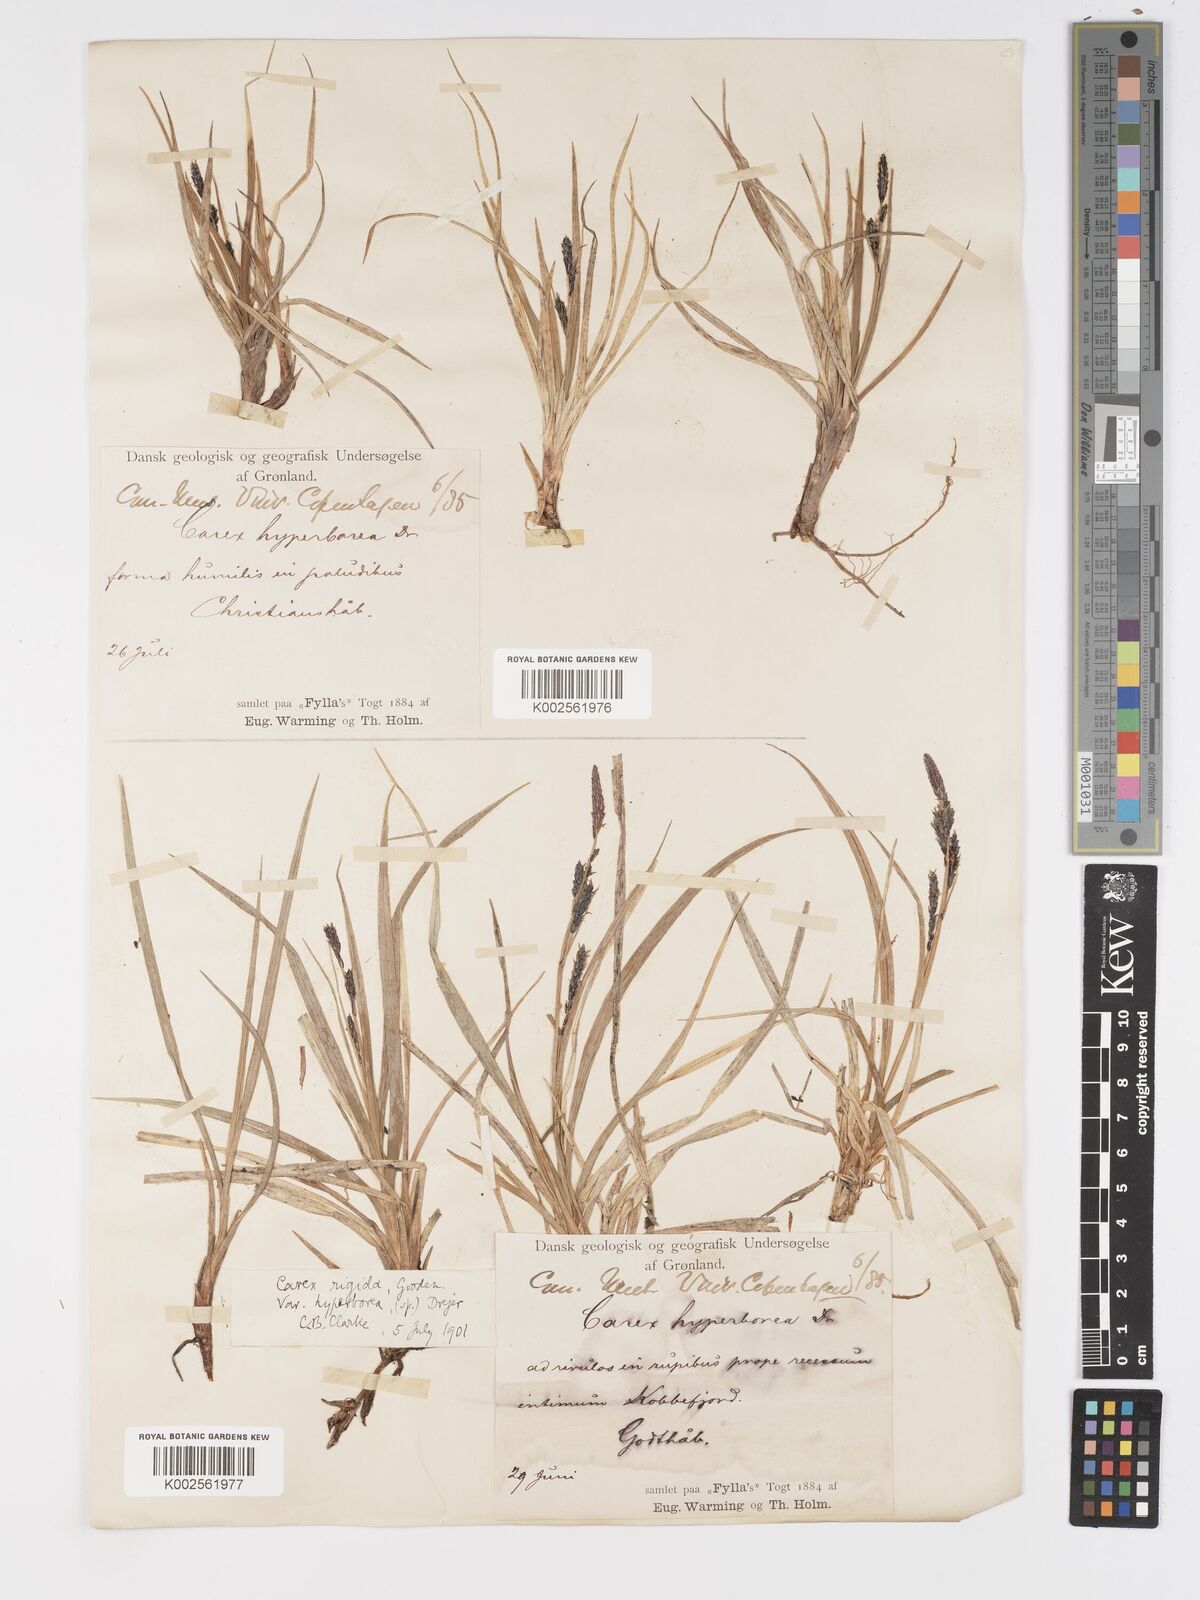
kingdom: Plantae
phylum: Tracheophyta
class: Liliopsida
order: Poales
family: Cyperaceae
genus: Carex
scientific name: Carex bigelowii
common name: Stiff sedge
